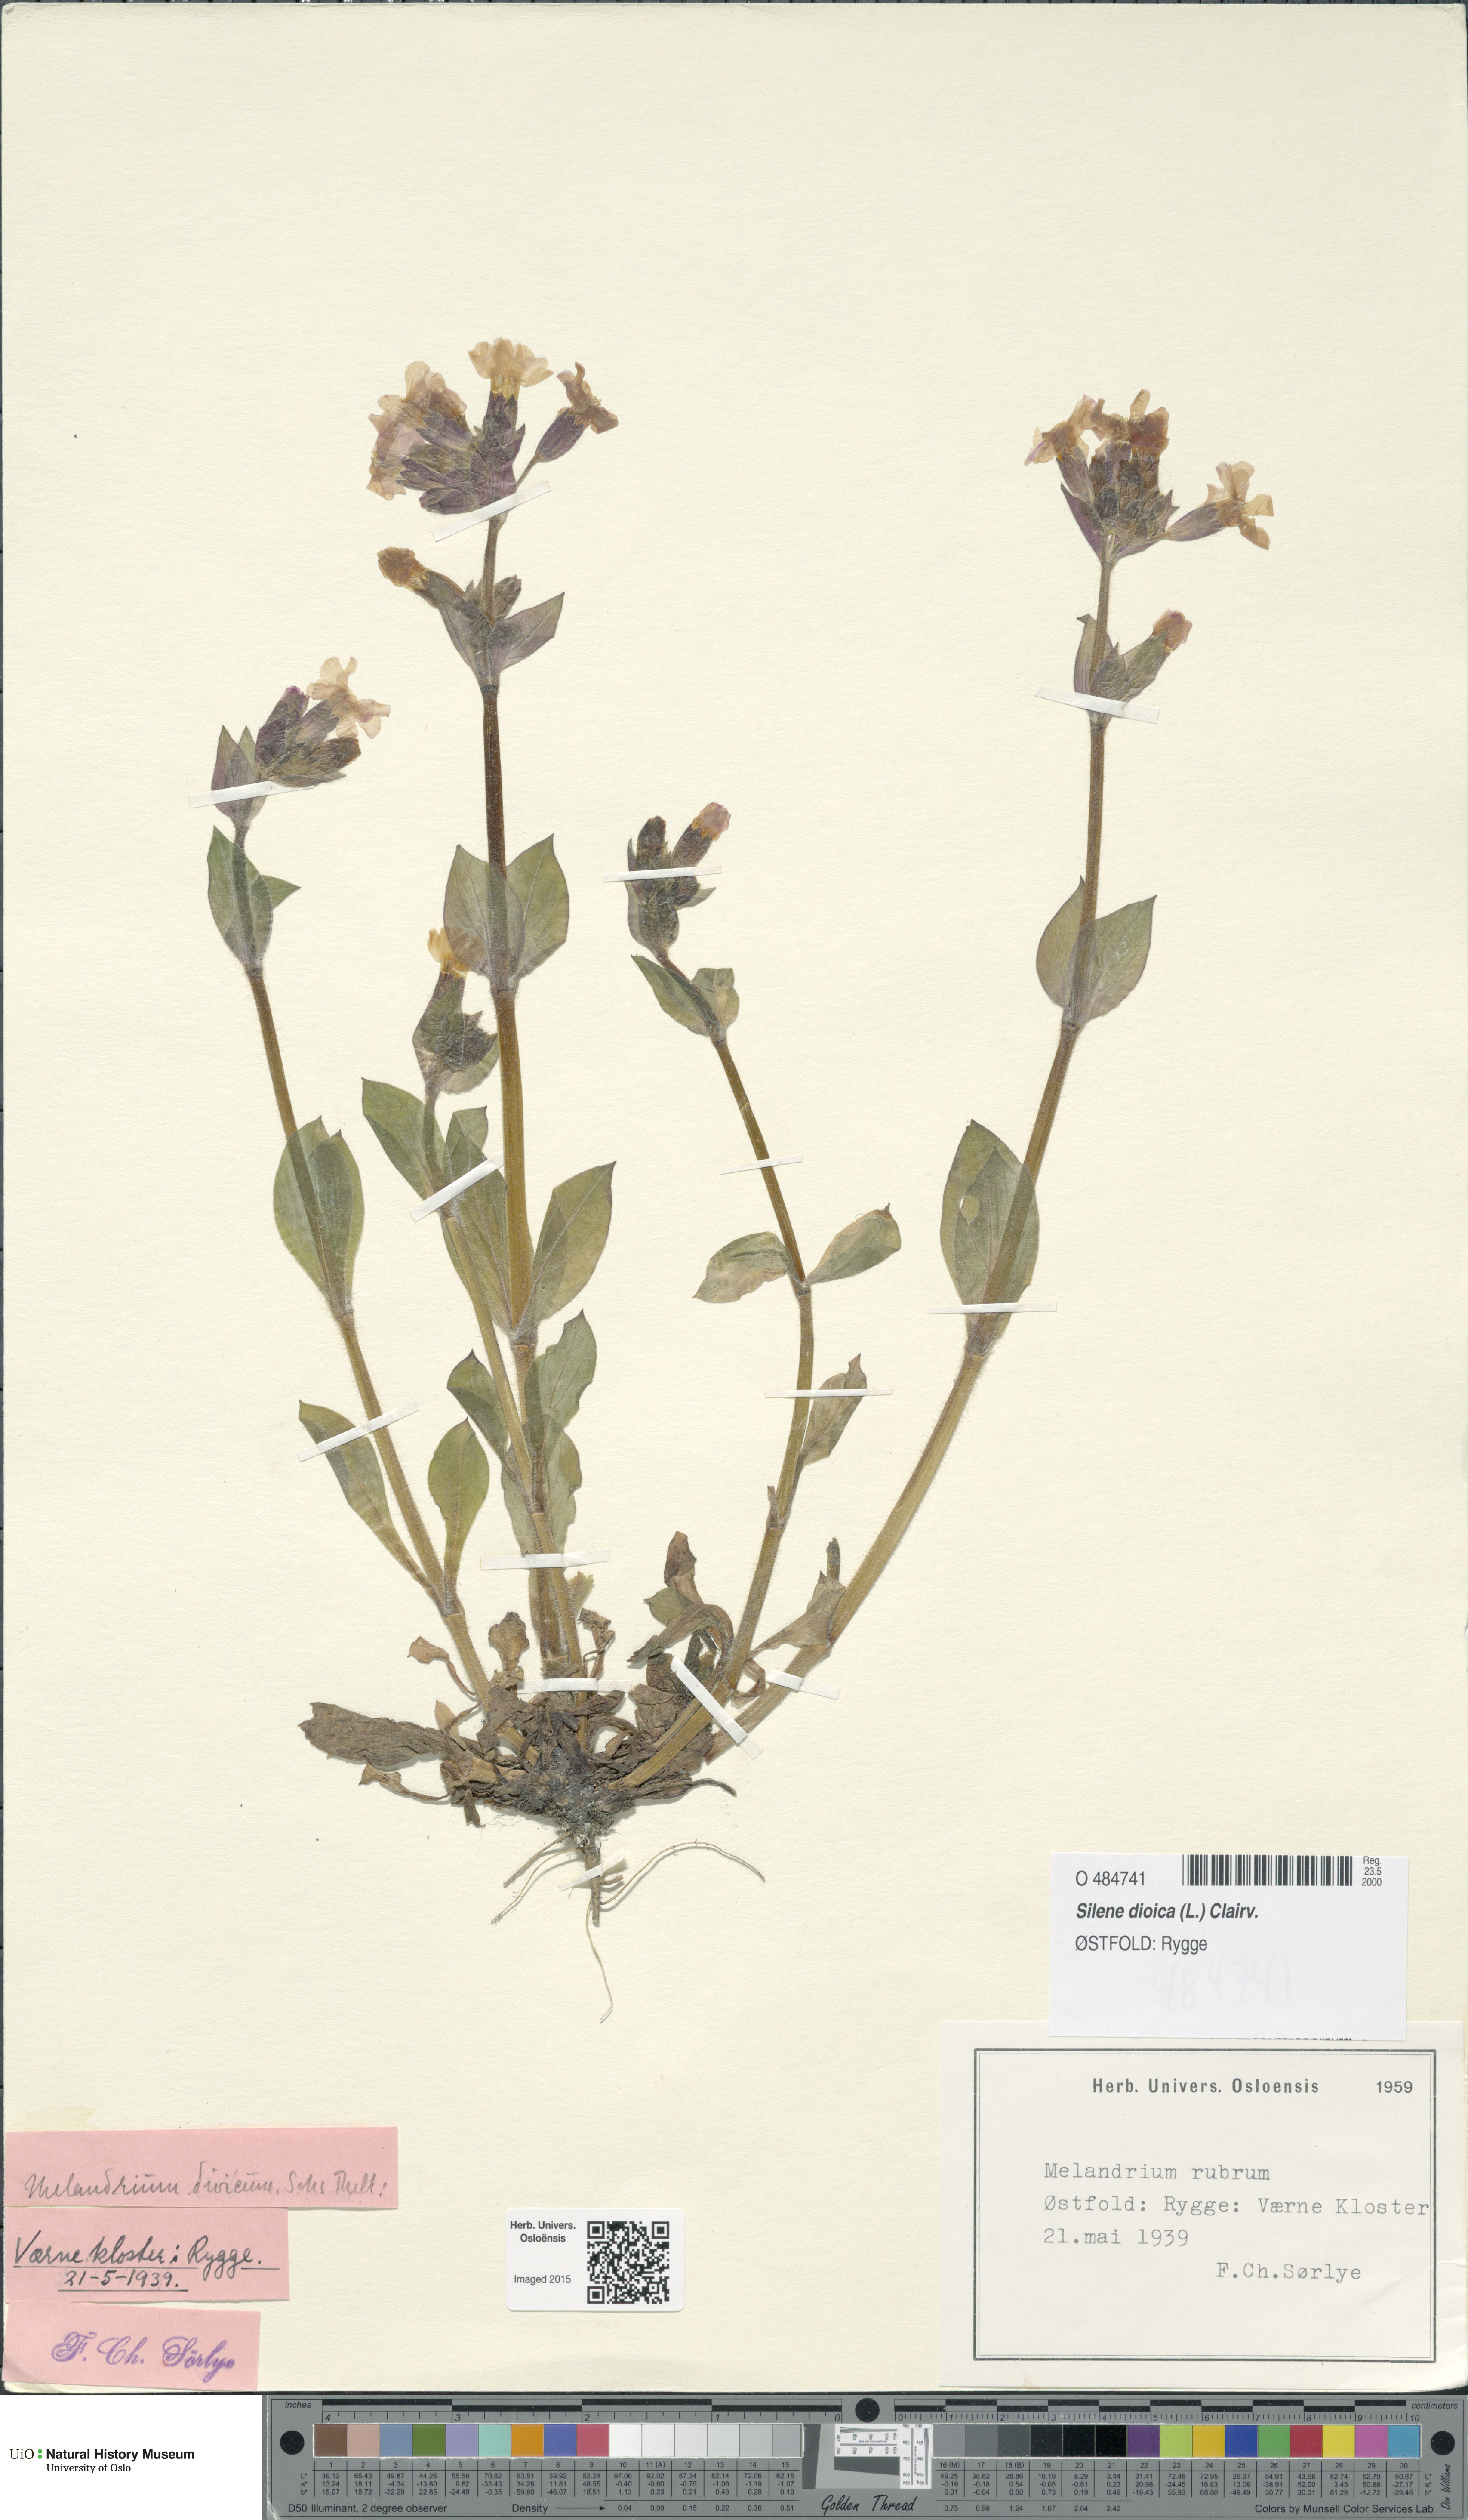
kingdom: Plantae
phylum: Tracheophyta
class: Magnoliopsida
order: Caryophyllales
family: Caryophyllaceae
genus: Silene
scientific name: Silene dioica
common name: Red campion
